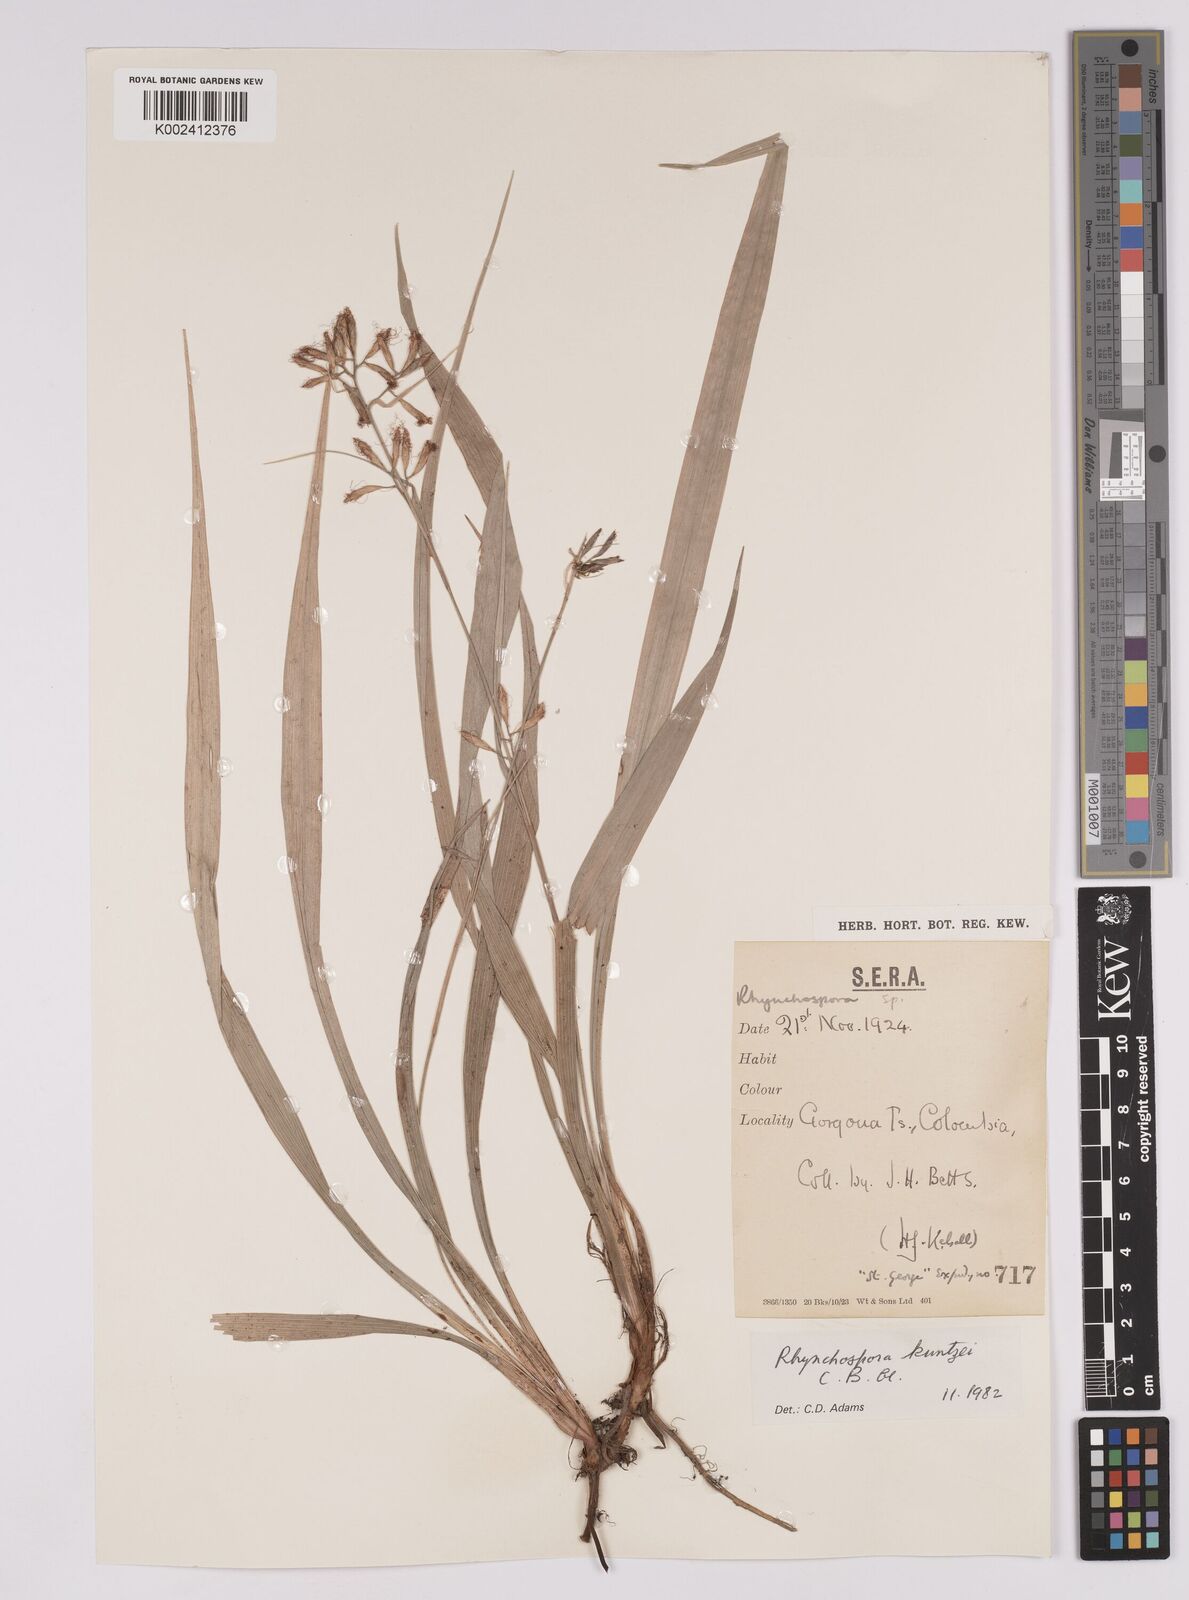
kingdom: Plantae
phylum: Tracheophyta
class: Liliopsida
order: Poales
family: Cyperaceae
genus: Rhynchospora
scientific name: Rhynchospora umbraticola
